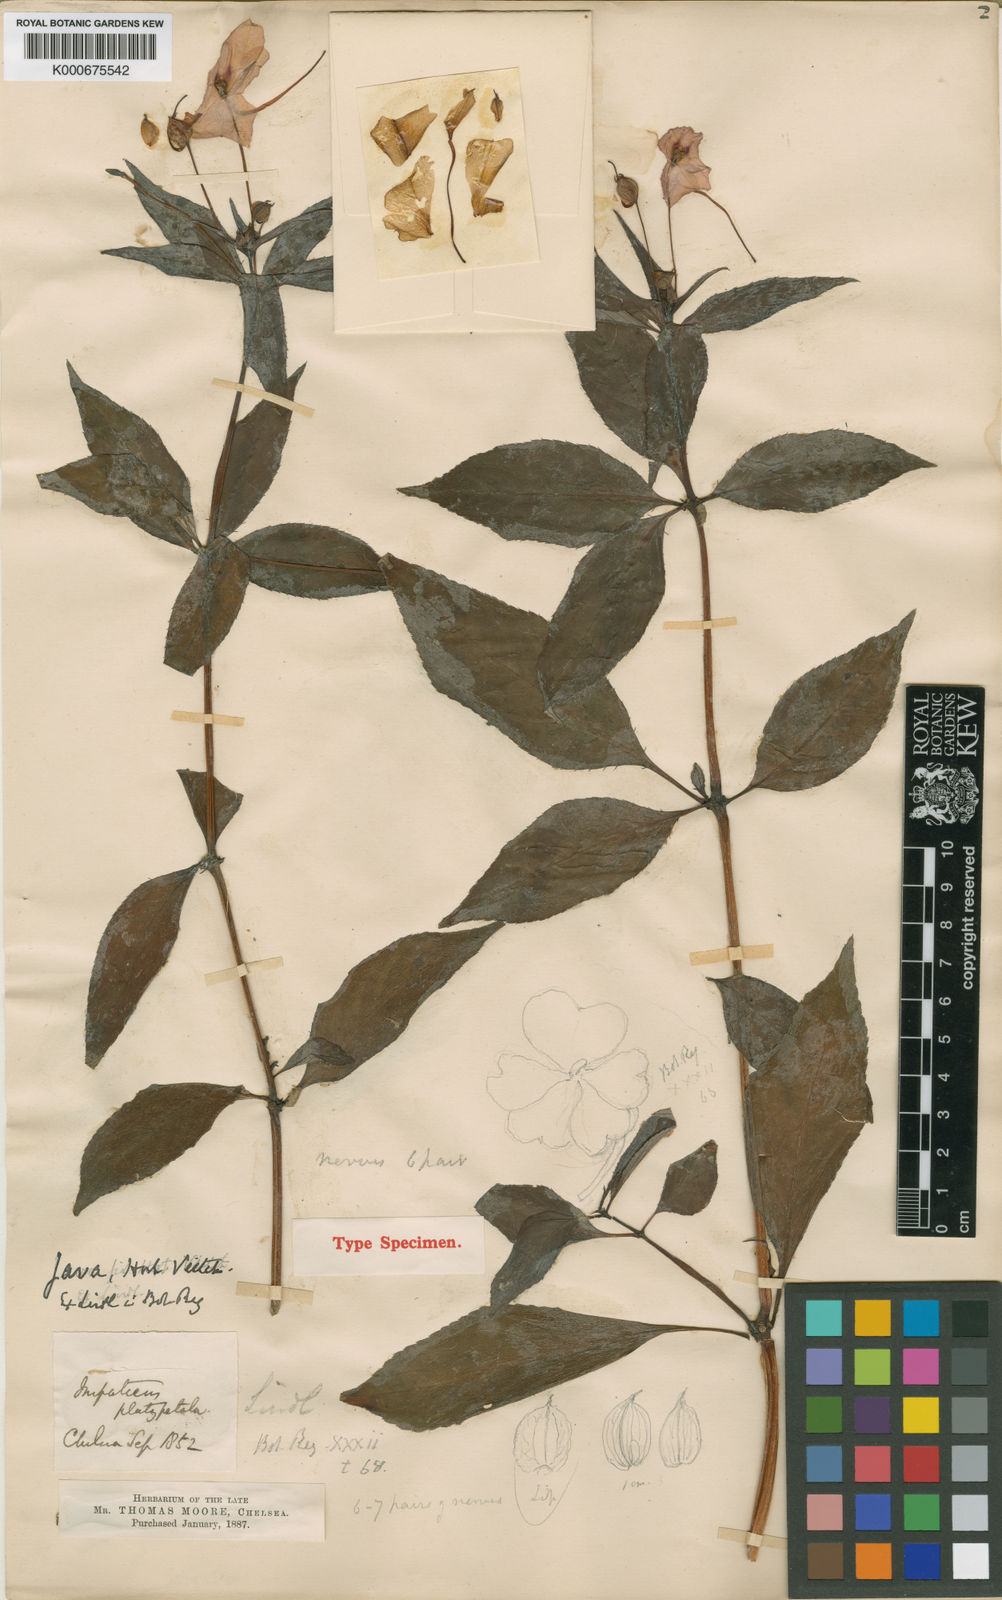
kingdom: Plantae
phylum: Tracheophyta
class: Magnoliopsida
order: Ericales
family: Balsaminaceae
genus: Impatiens
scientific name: Impatiens platypetala
